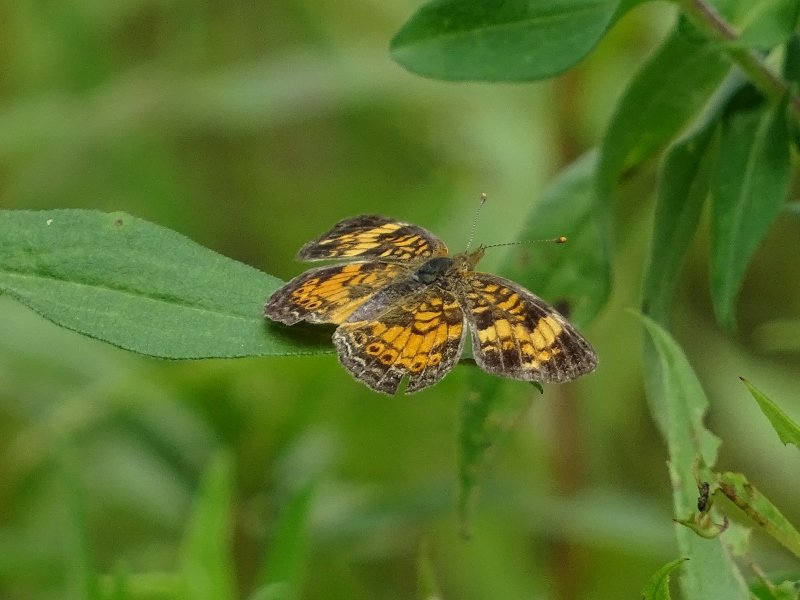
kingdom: Animalia
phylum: Arthropoda
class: Insecta
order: Lepidoptera
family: Nymphalidae
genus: Phyciodes
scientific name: Phyciodes tharos
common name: Northern Crescent
